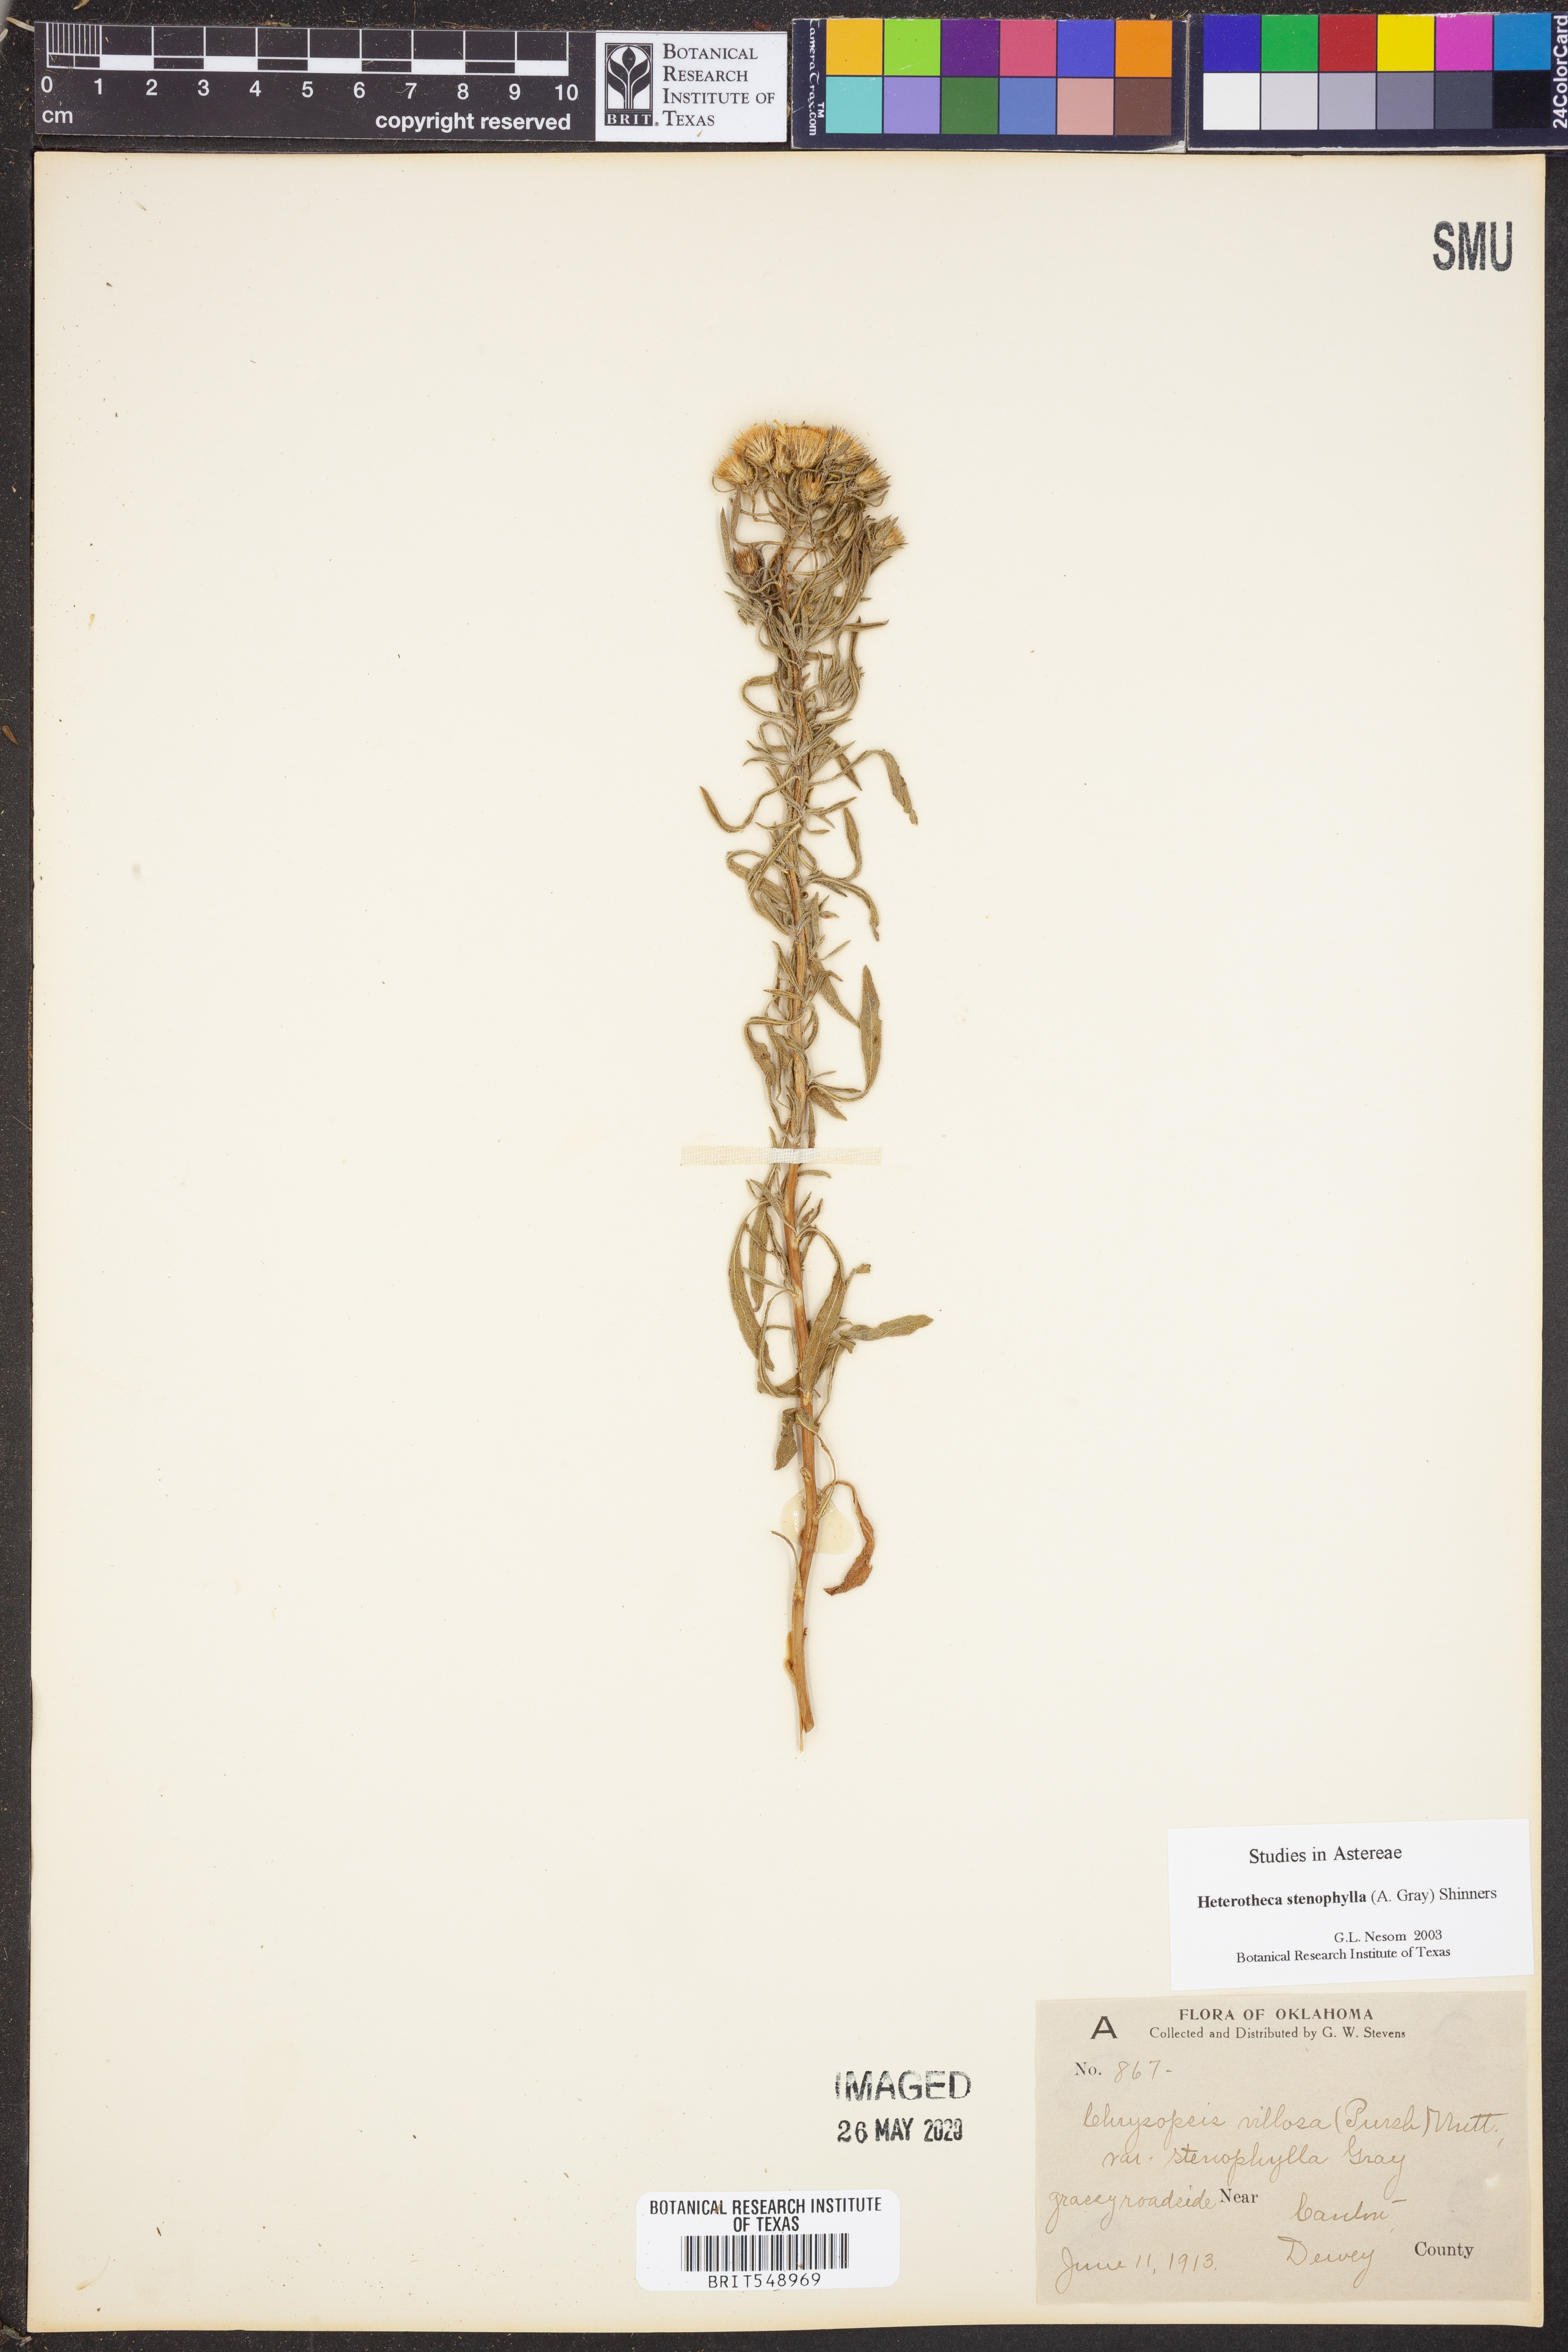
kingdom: Plantae
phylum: Tracheophyta
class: Magnoliopsida
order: Asterales
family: Asteraceae
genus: Heterotheca
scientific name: Heterotheca stenophylla
